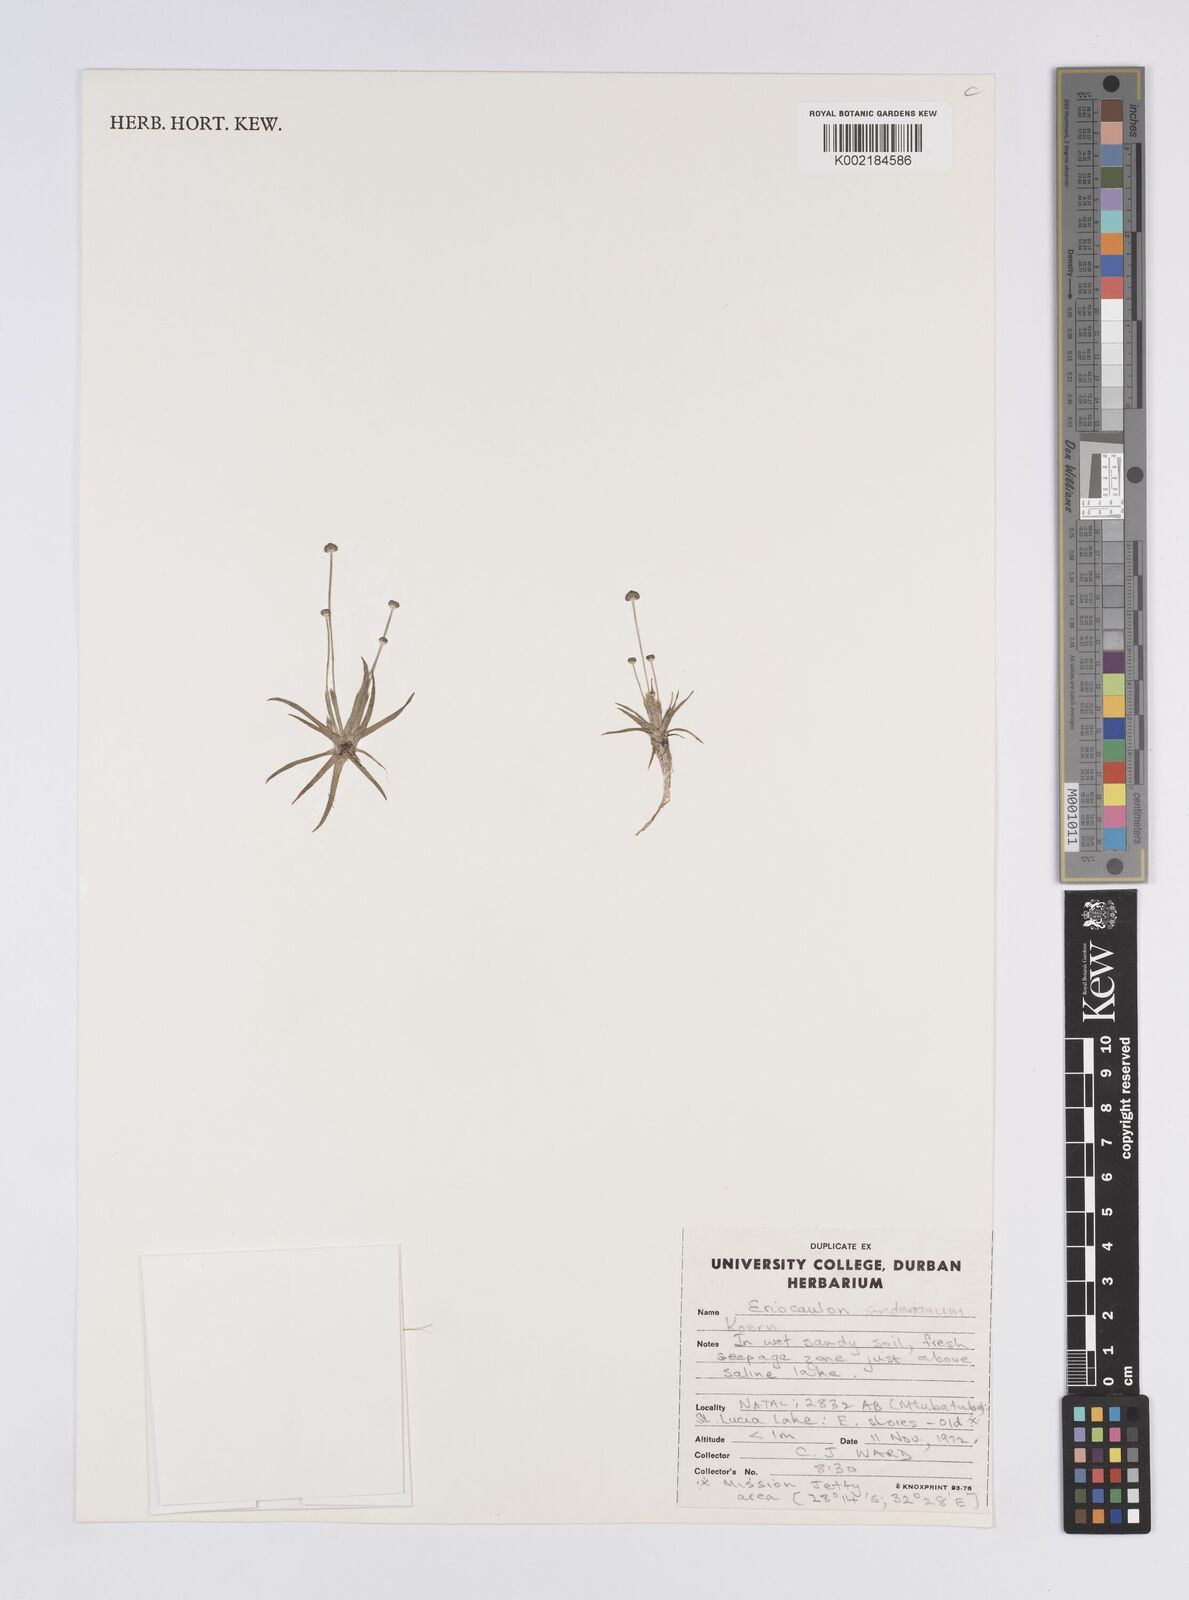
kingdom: Plantae
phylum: Tracheophyta
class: Liliopsida
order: Poales
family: Eriocaulaceae
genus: Eriocaulon
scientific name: Eriocaulon sonderianum
